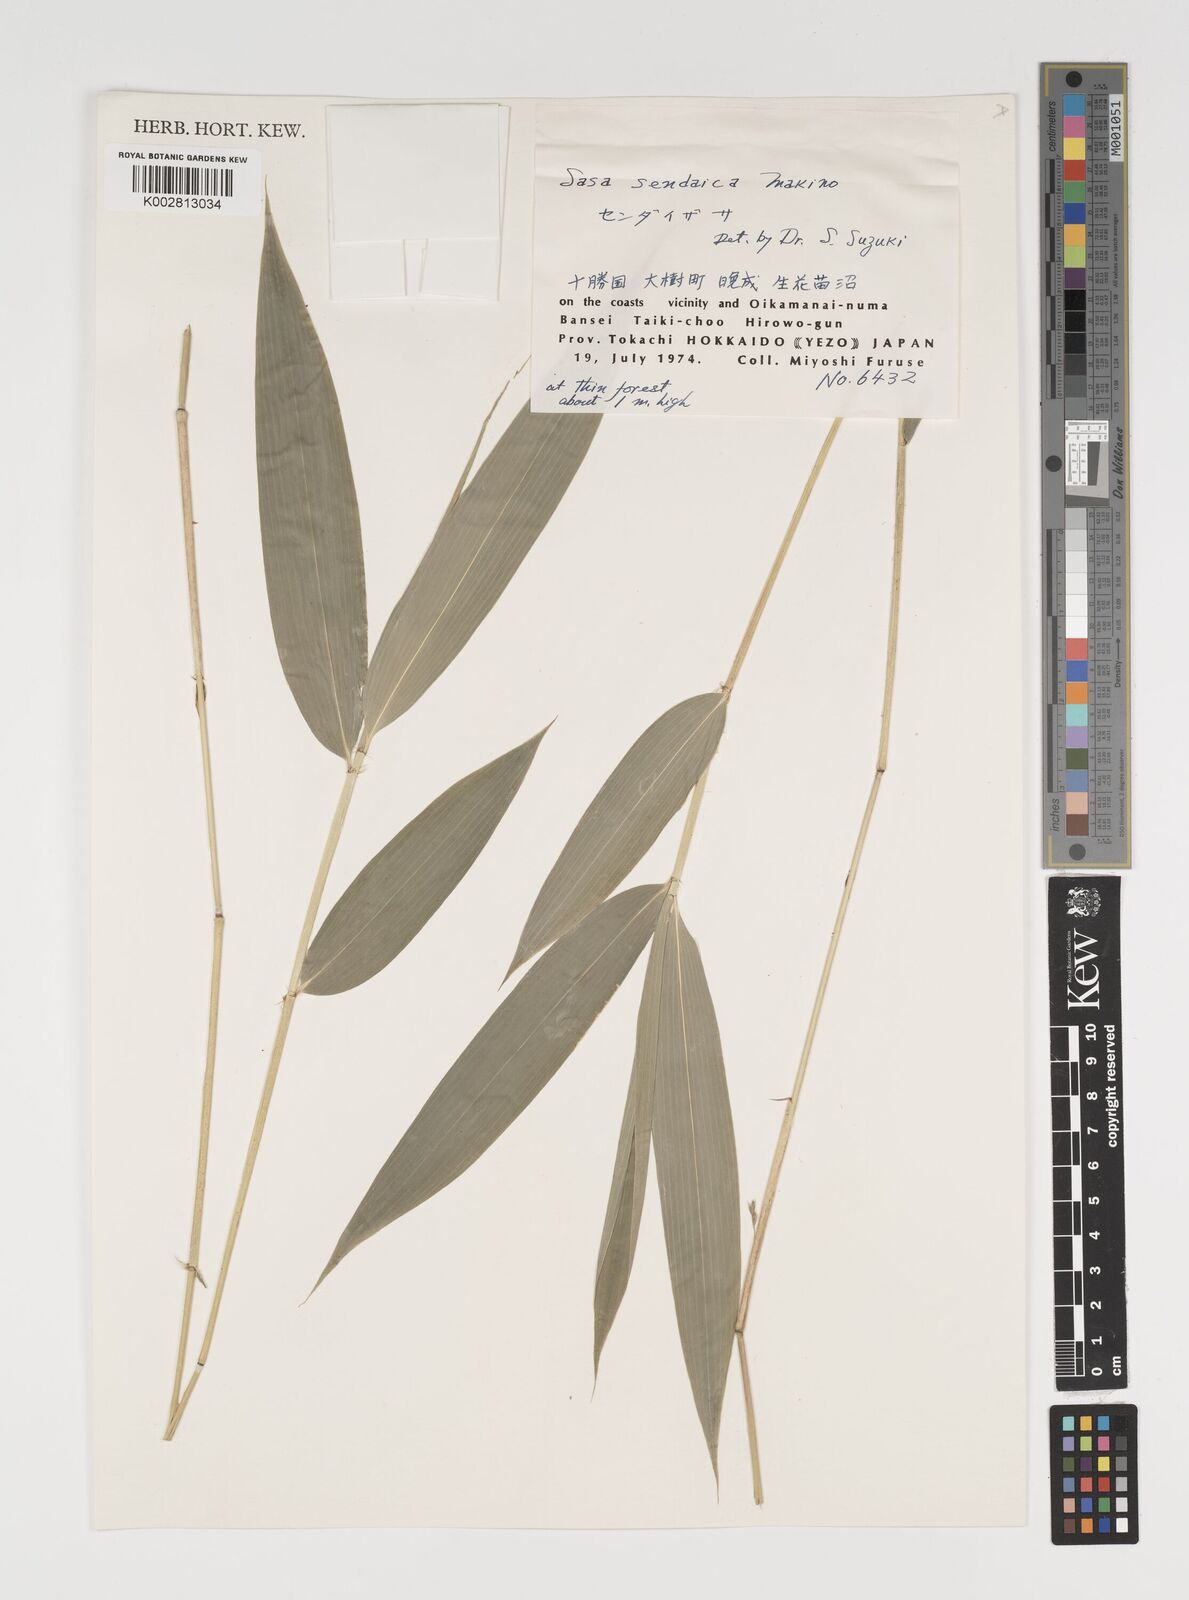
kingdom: Plantae
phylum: Tracheophyta
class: Liliopsida
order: Poales
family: Poaceae
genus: Sasa
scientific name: Sasa chartacea
